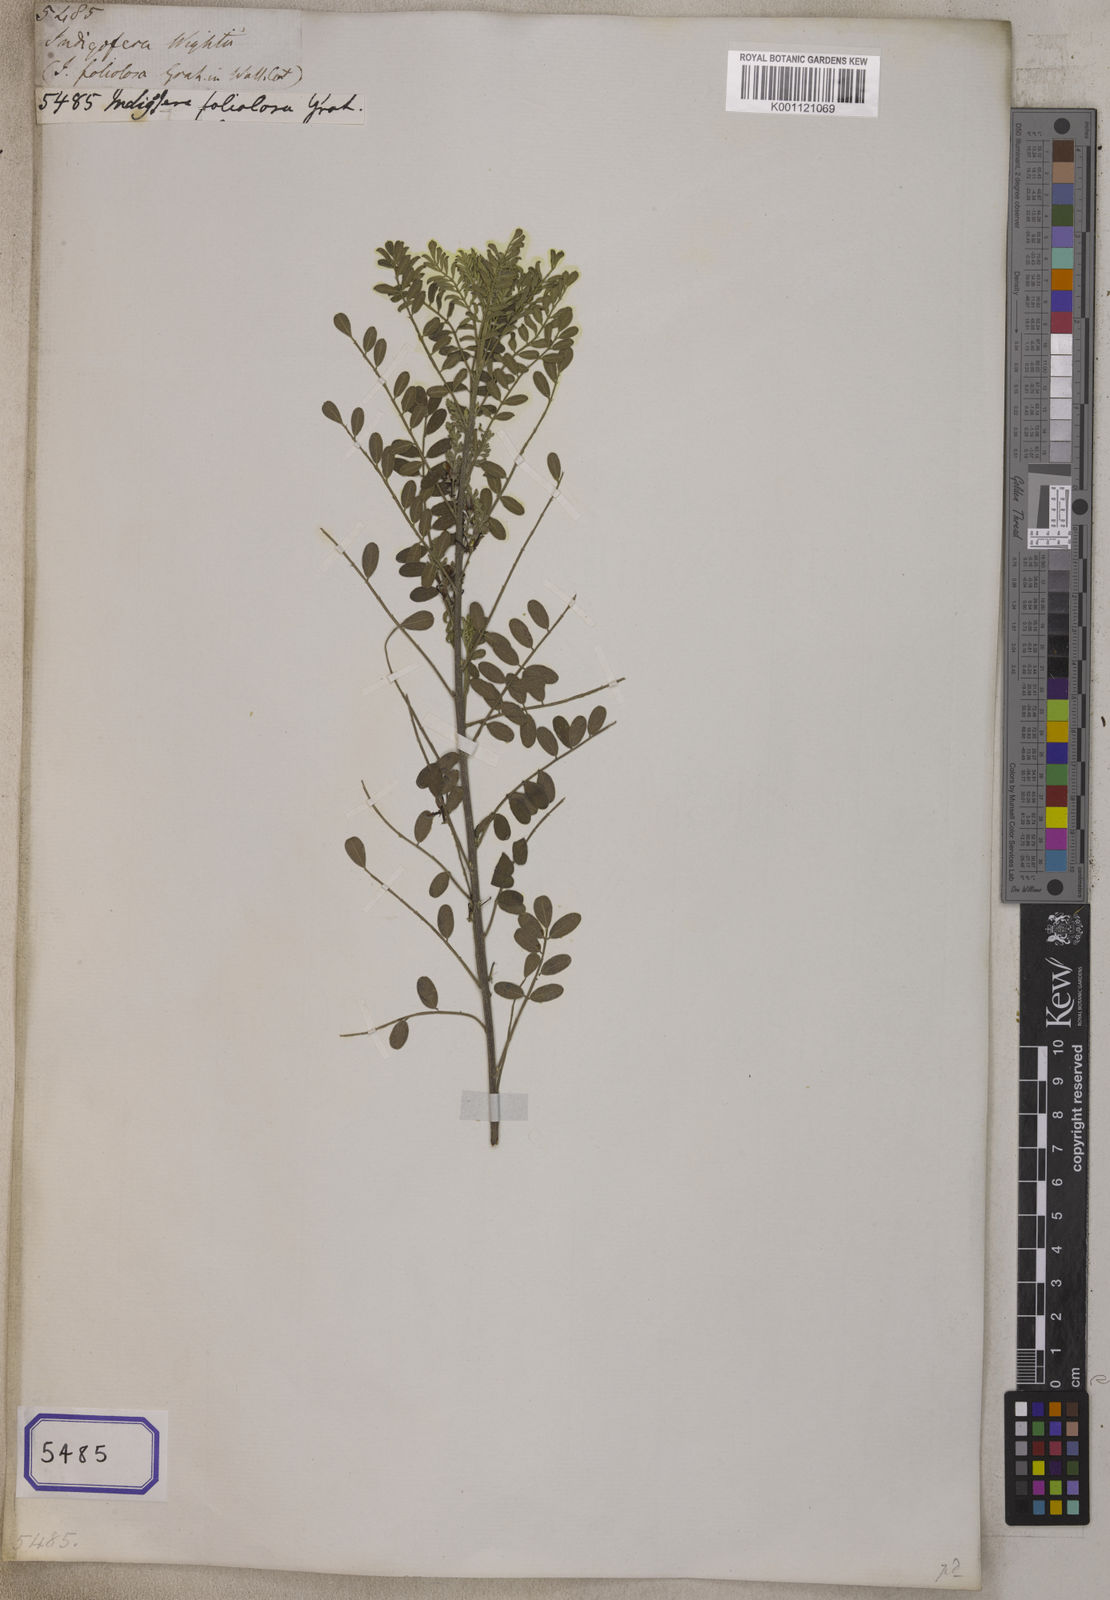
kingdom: Plantae
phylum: Tracheophyta
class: Magnoliopsida
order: Fabales
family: Fabaceae
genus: Indigofera
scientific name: Indigofera wightii
